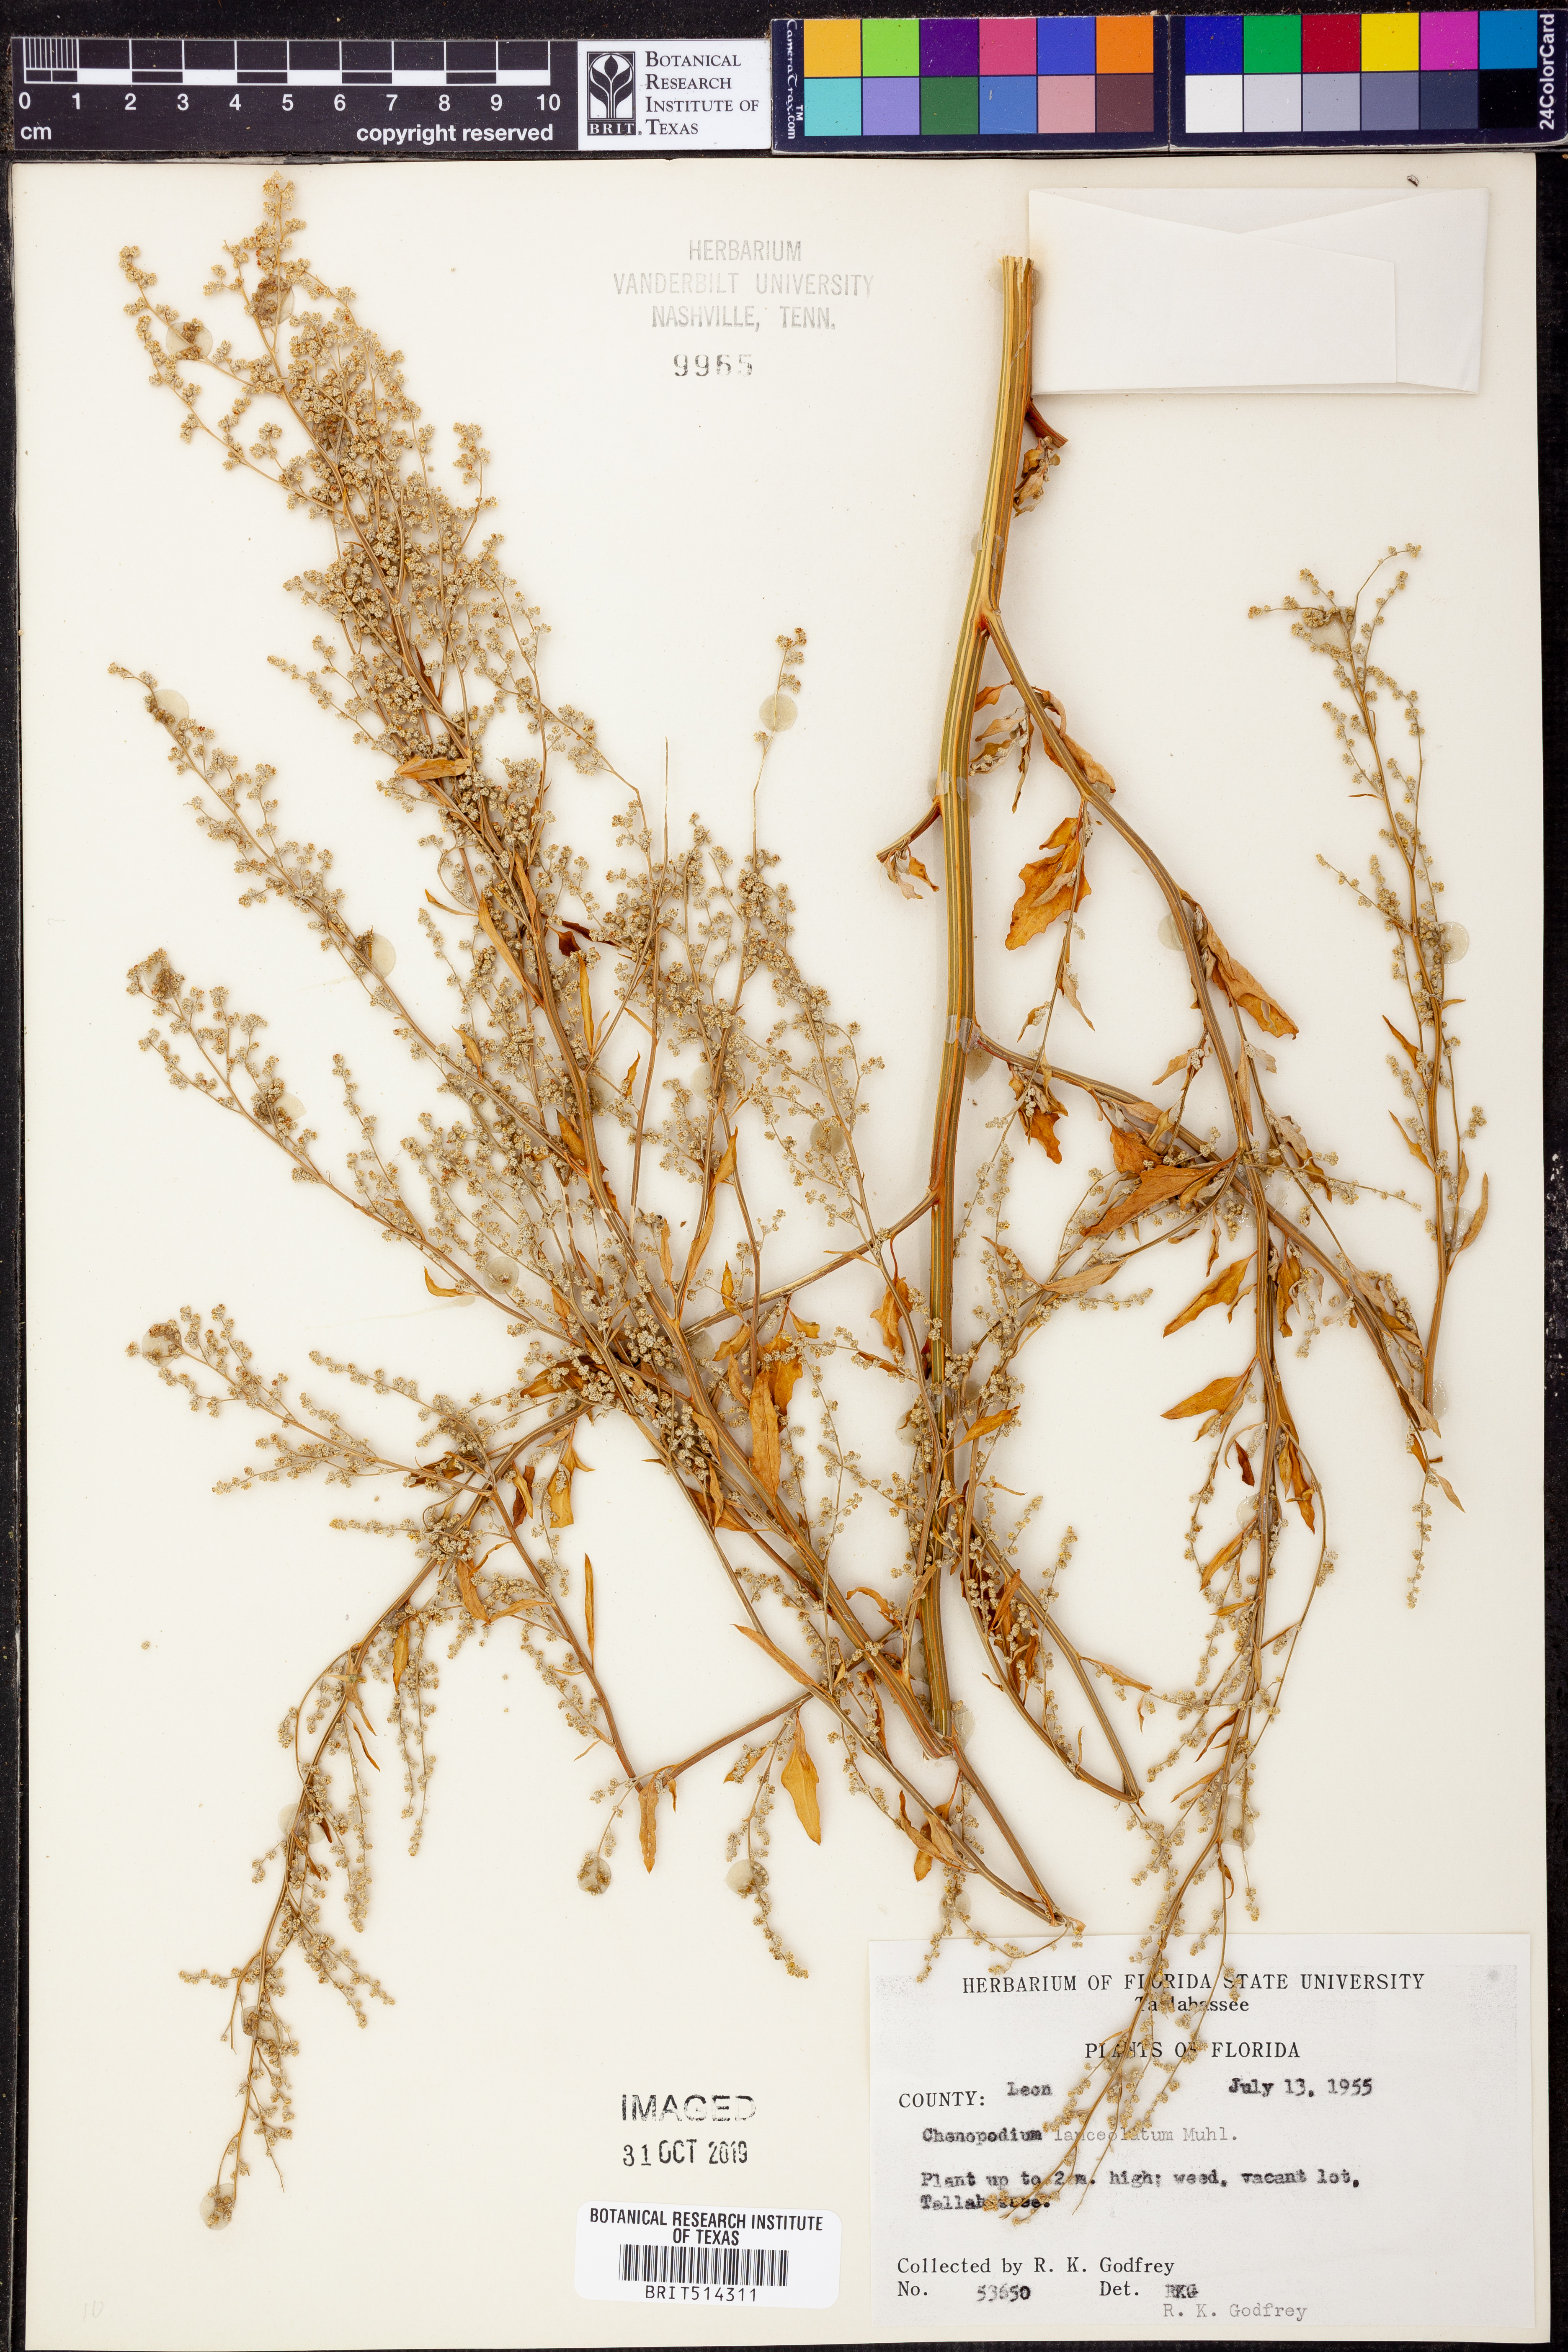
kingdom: Plantae
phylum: Tracheophyta
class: Magnoliopsida
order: Caryophyllales
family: Amaranthaceae
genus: Chenopodium
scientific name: Chenopodium album
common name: Fat-hen
